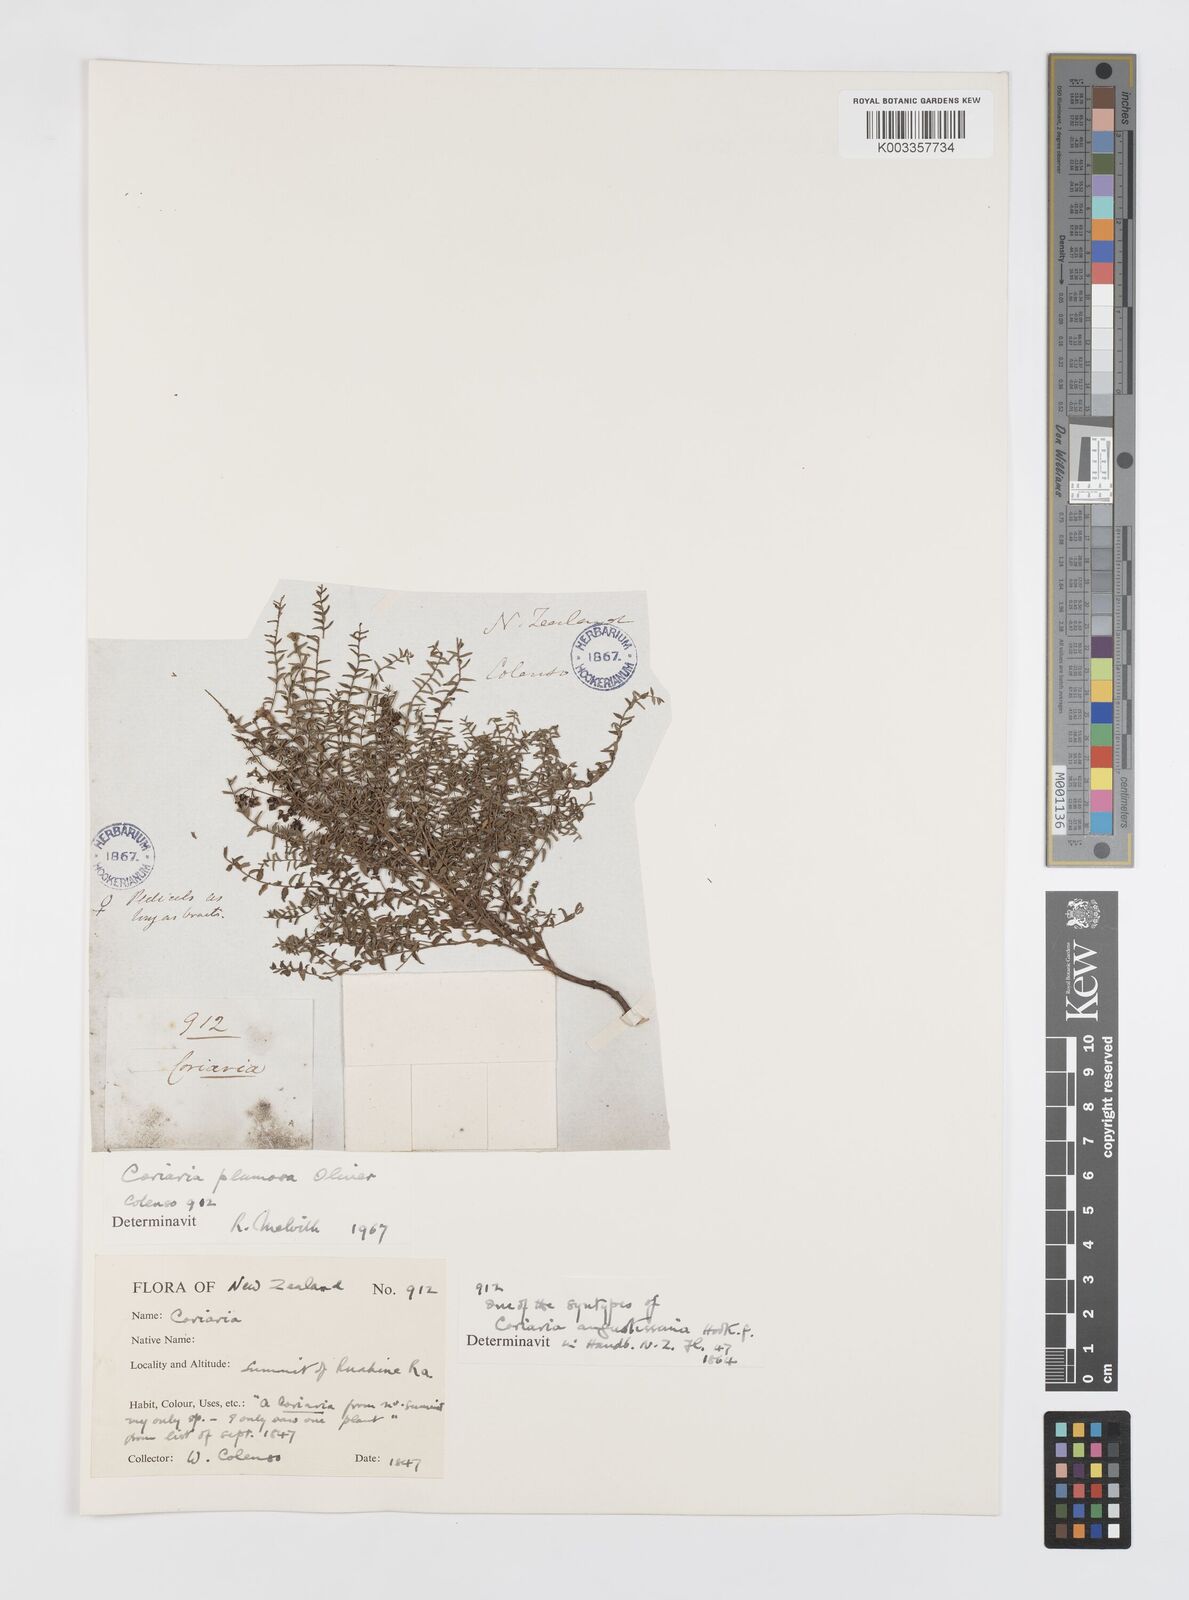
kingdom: Plantae
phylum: Tracheophyta
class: Magnoliopsida
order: Cucurbitales
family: Coriariaceae
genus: Coriaria
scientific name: Coriaria plumosa
